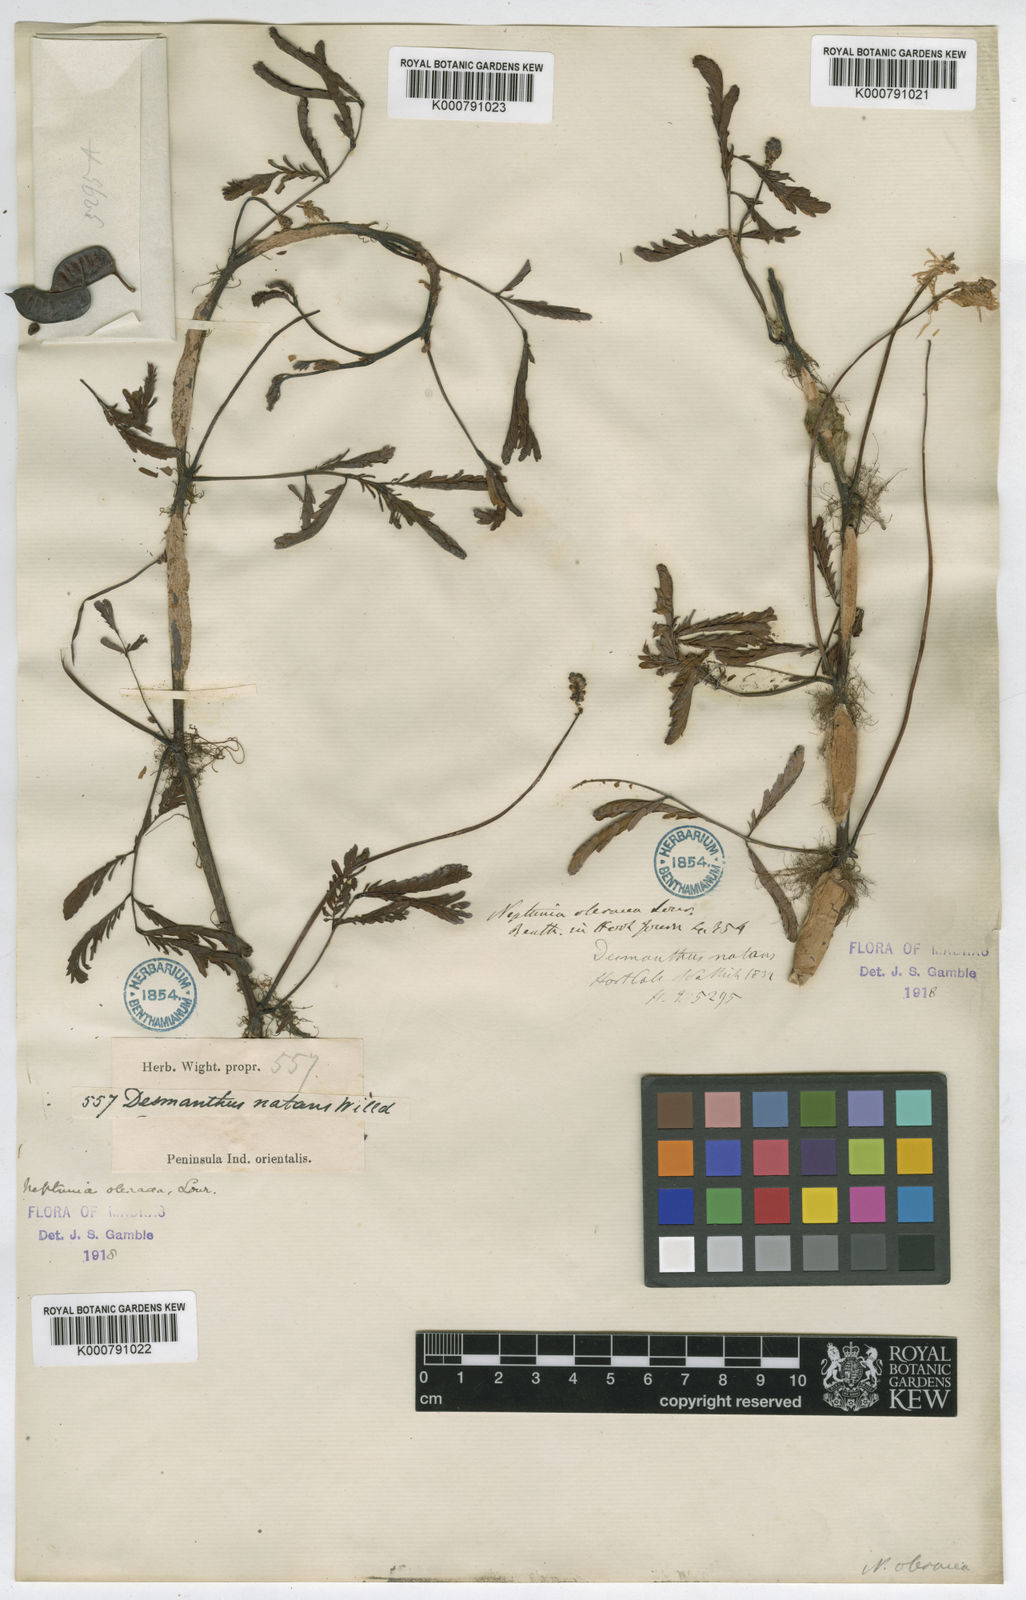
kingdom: Plantae
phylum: Tracheophyta
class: Magnoliopsida
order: Fabales
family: Fabaceae
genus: Neptunia
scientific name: Neptunia prostrata
